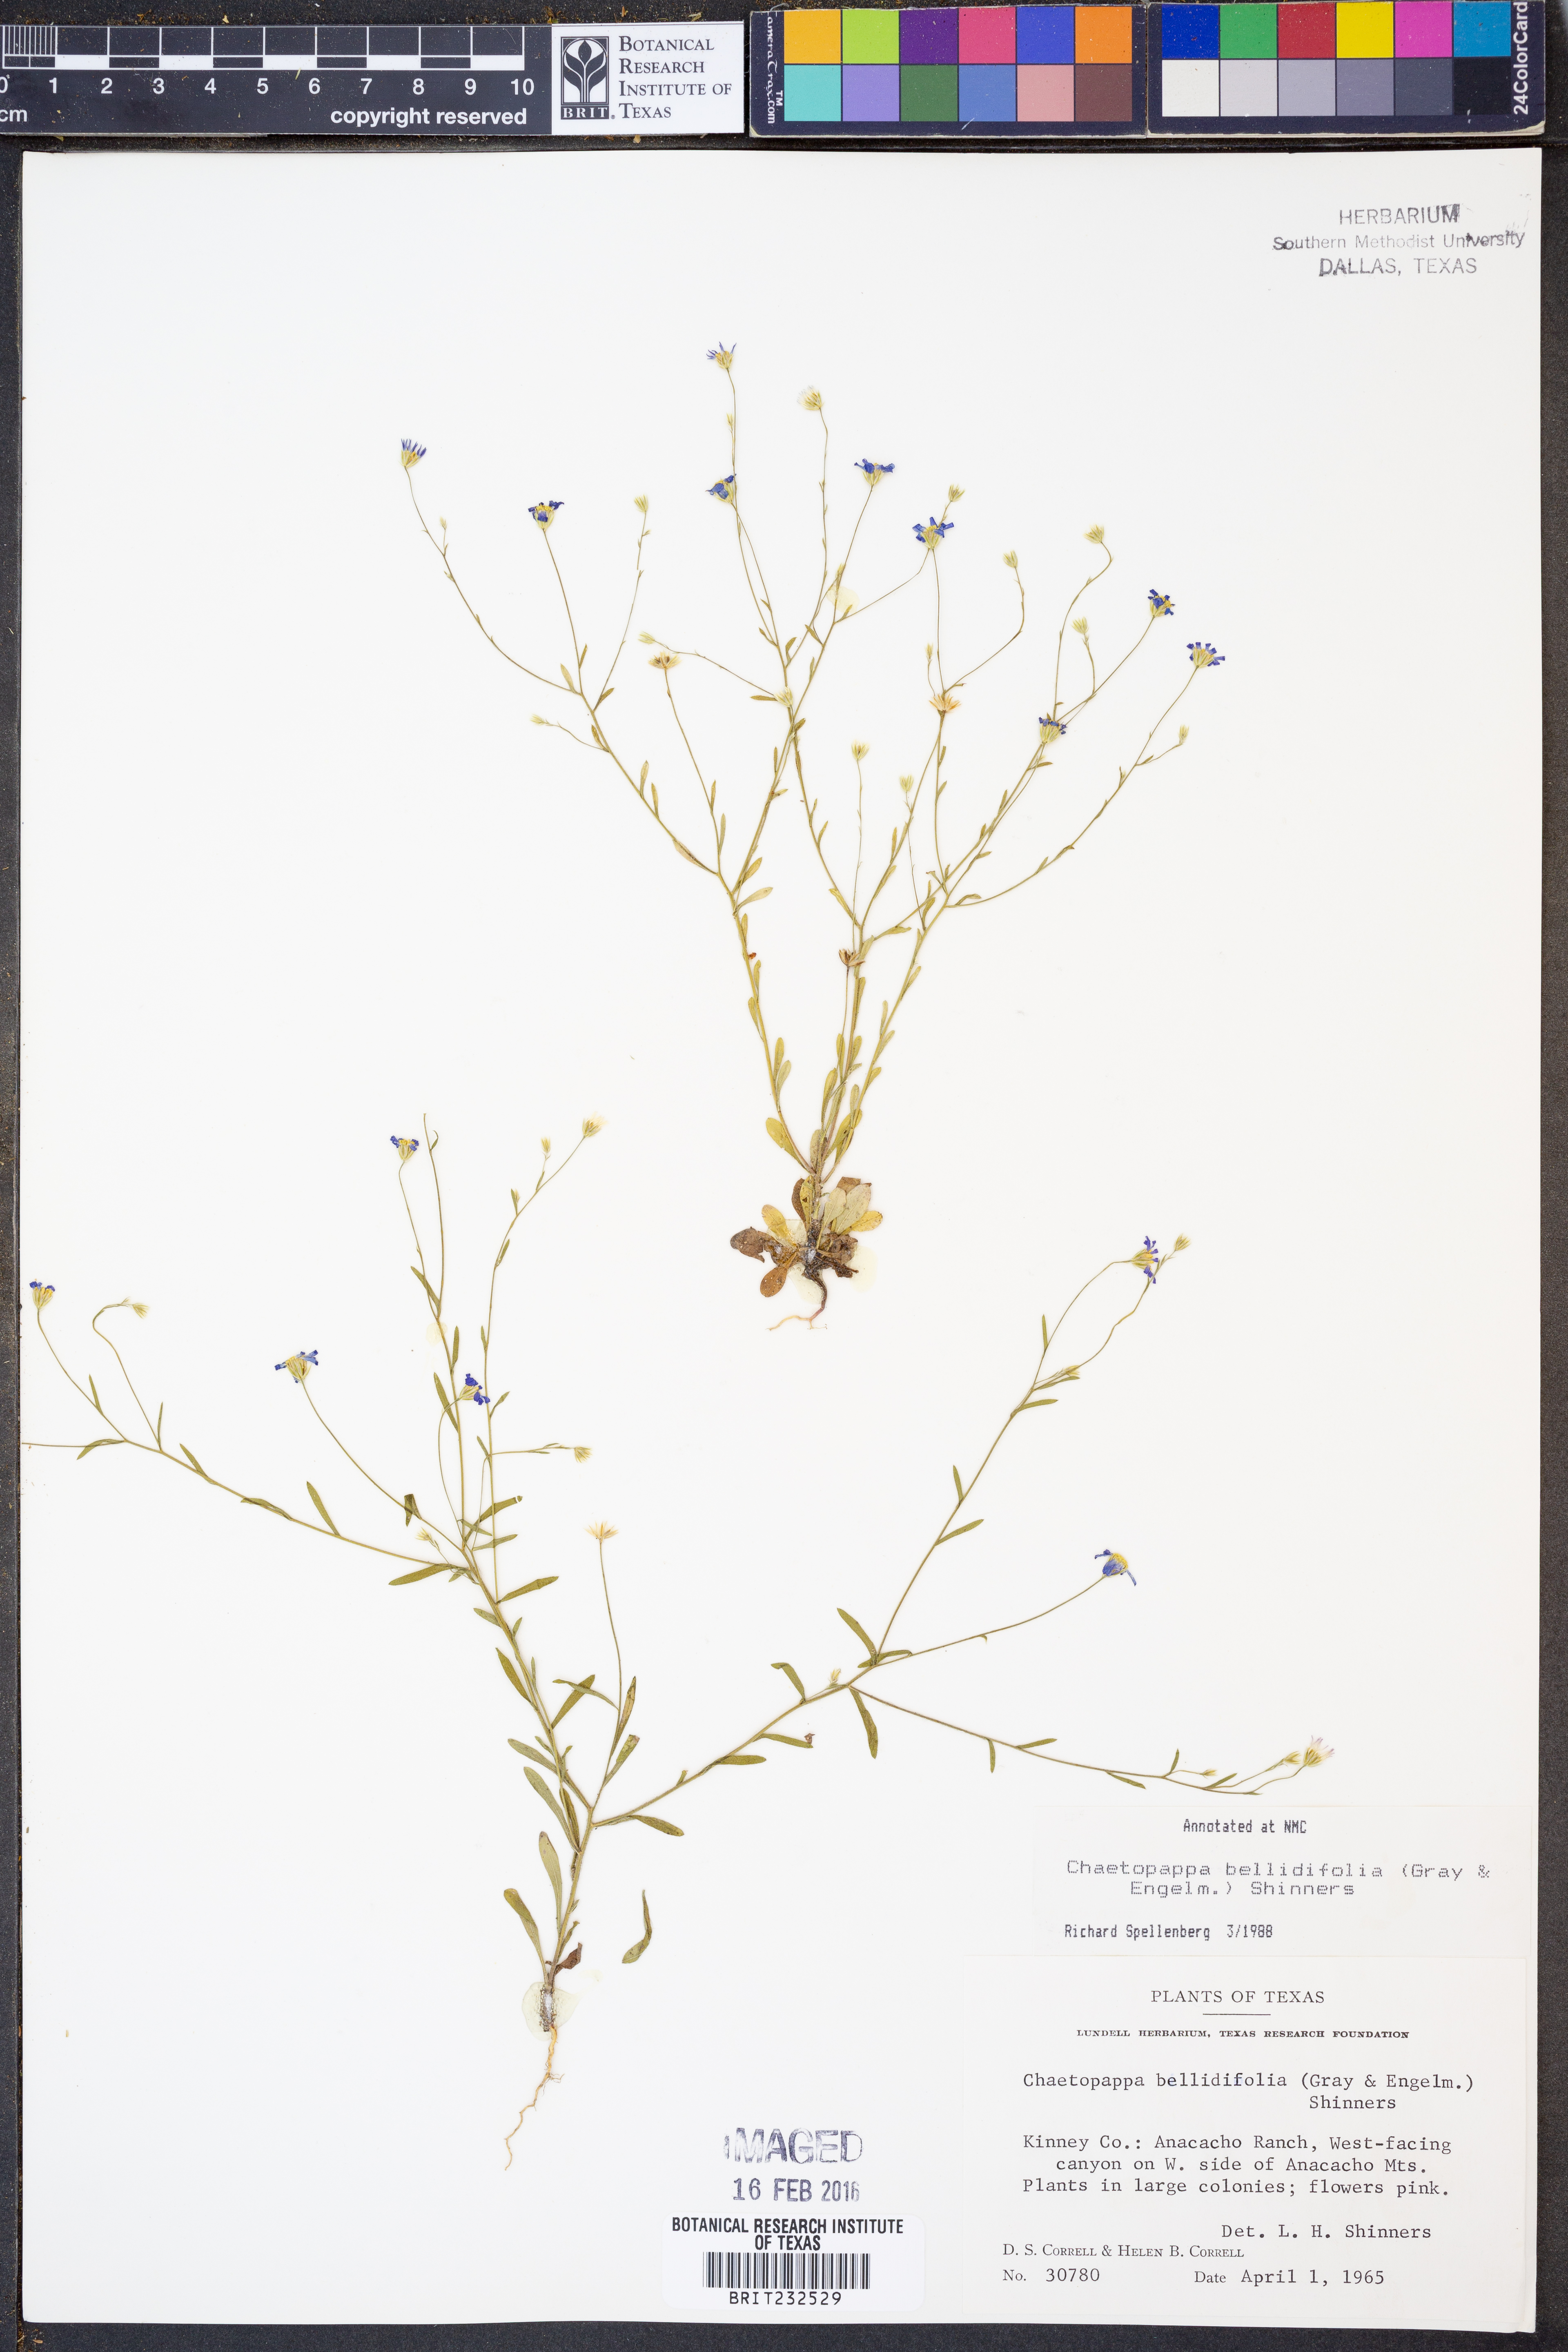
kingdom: Plantae
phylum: Tracheophyta
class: Magnoliopsida
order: Asterales
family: Asteraceae
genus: Chaetopappa
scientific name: Chaetopappa bellidifolia
